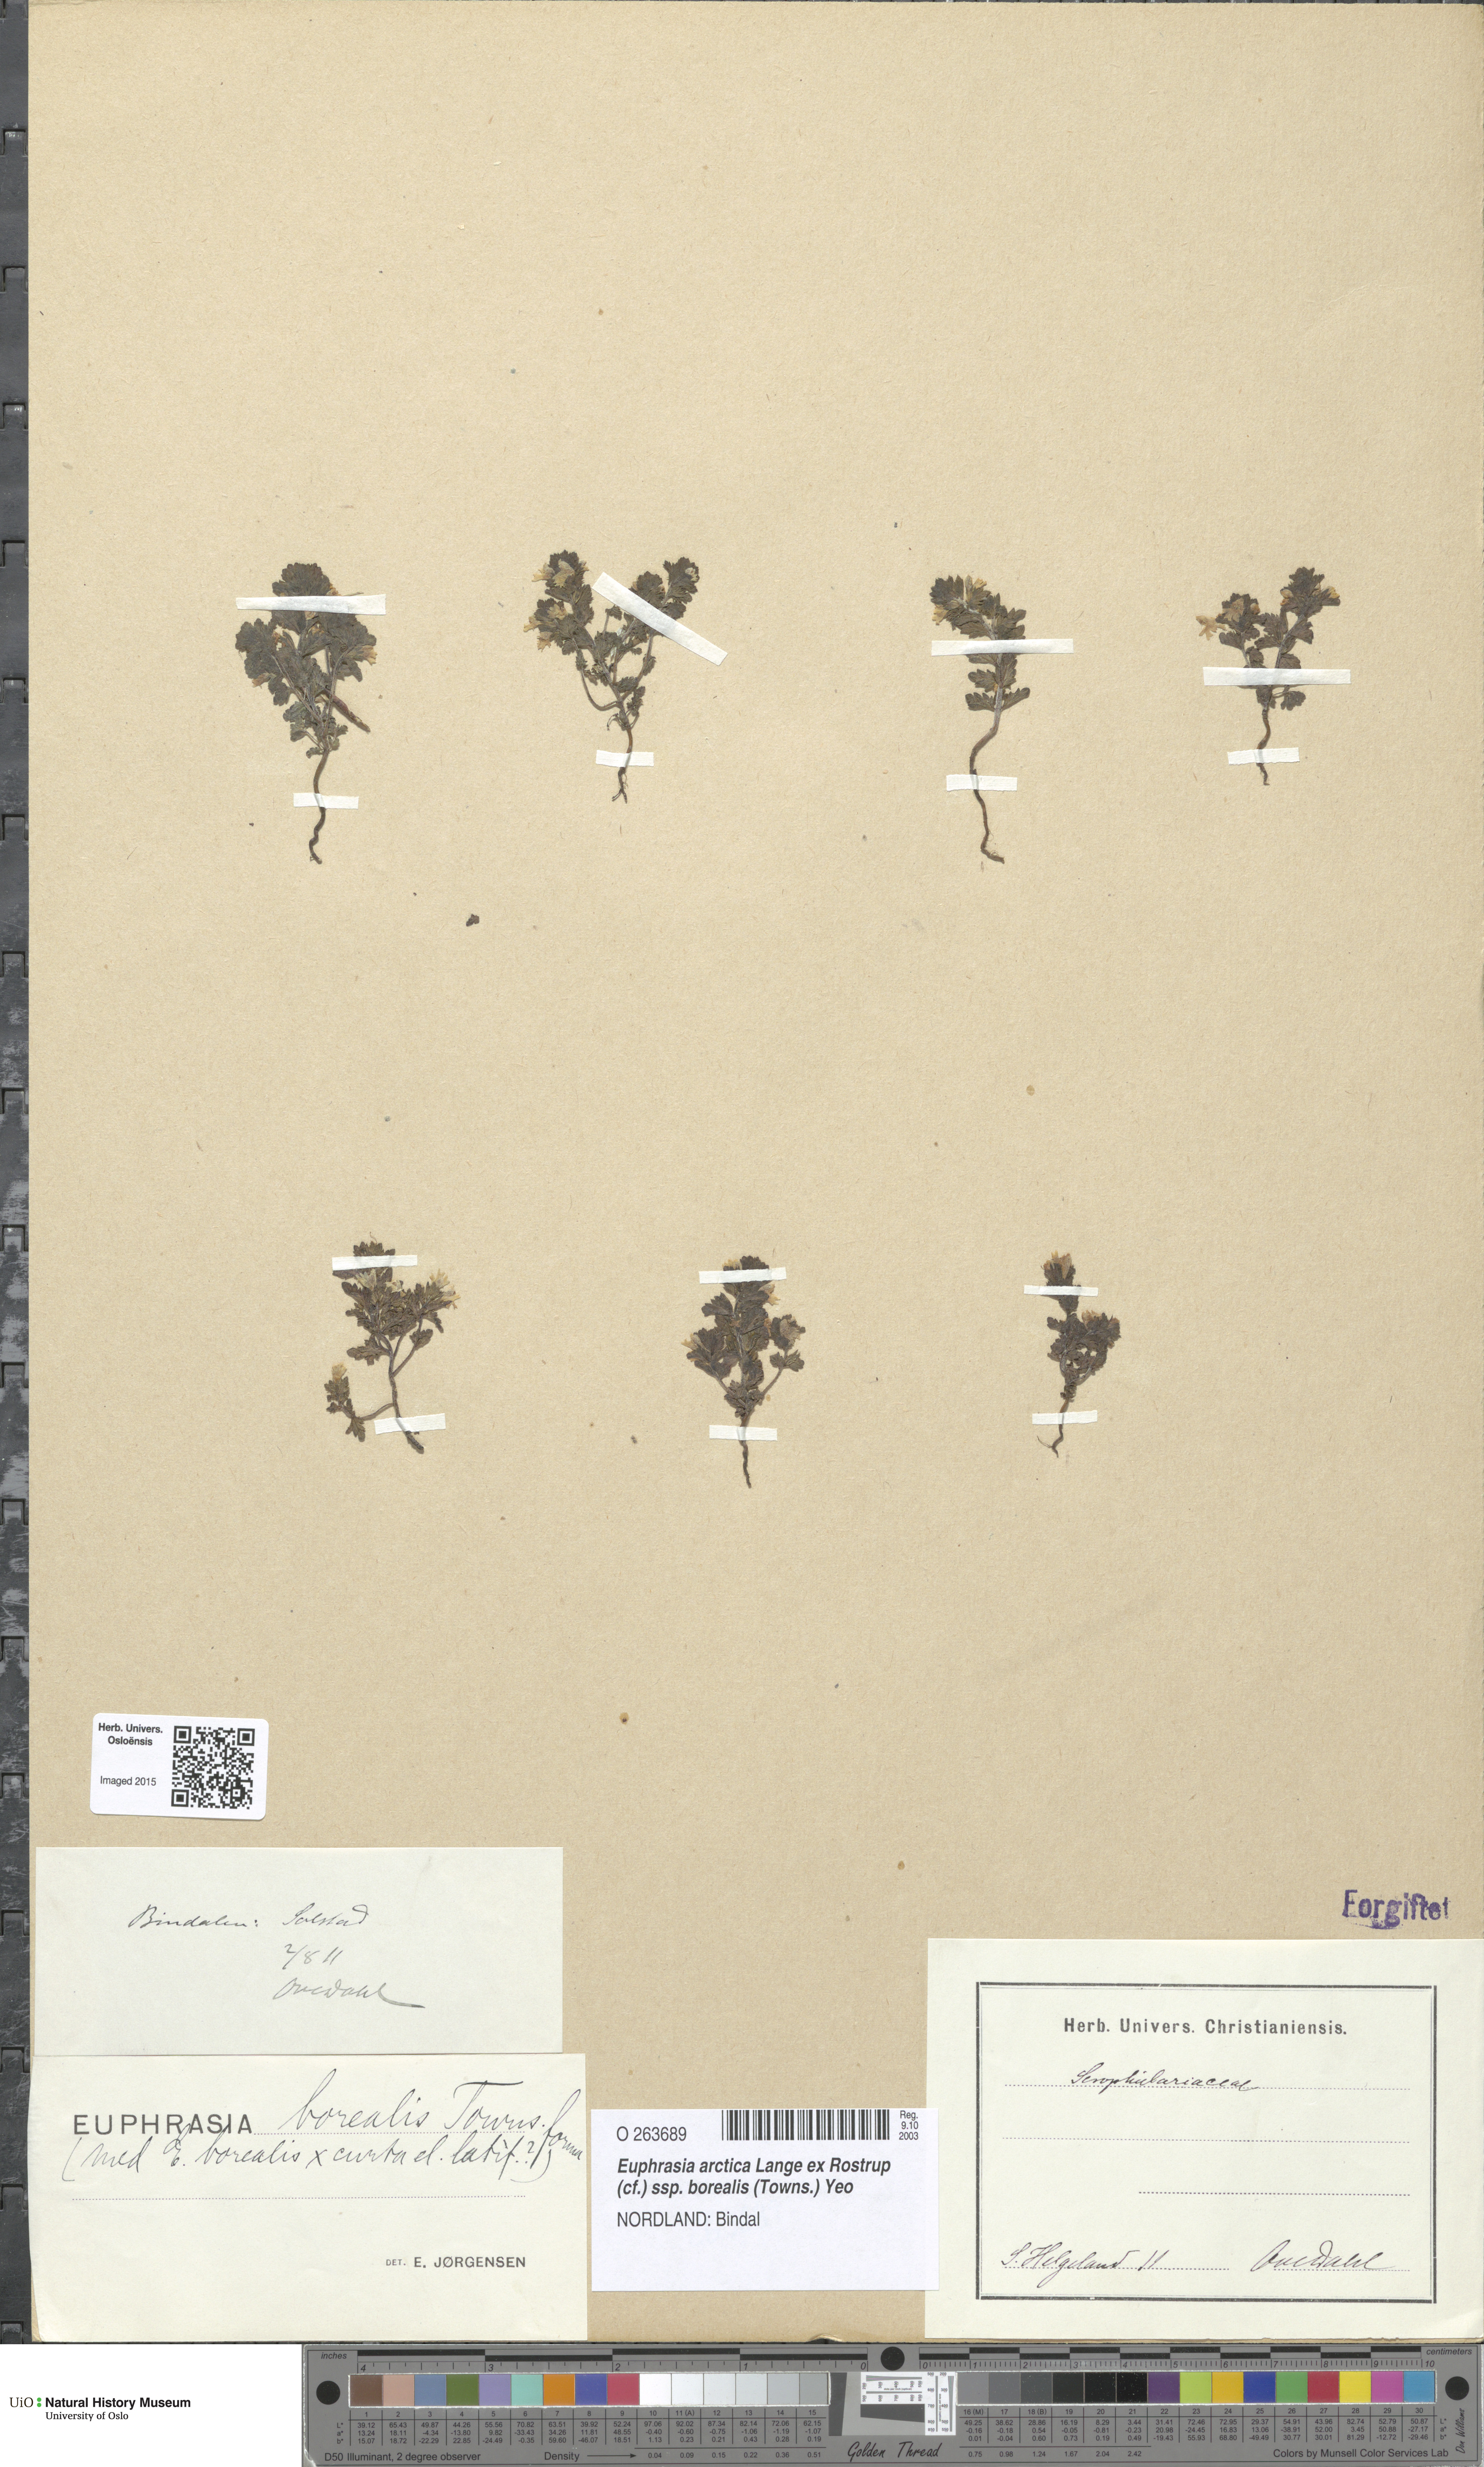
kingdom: Plantae
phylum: Tracheophyta
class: Magnoliopsida
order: Lamiales
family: Orobanchaceae
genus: Euphrasia
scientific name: Euphrasia arctica
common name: An eyebright
